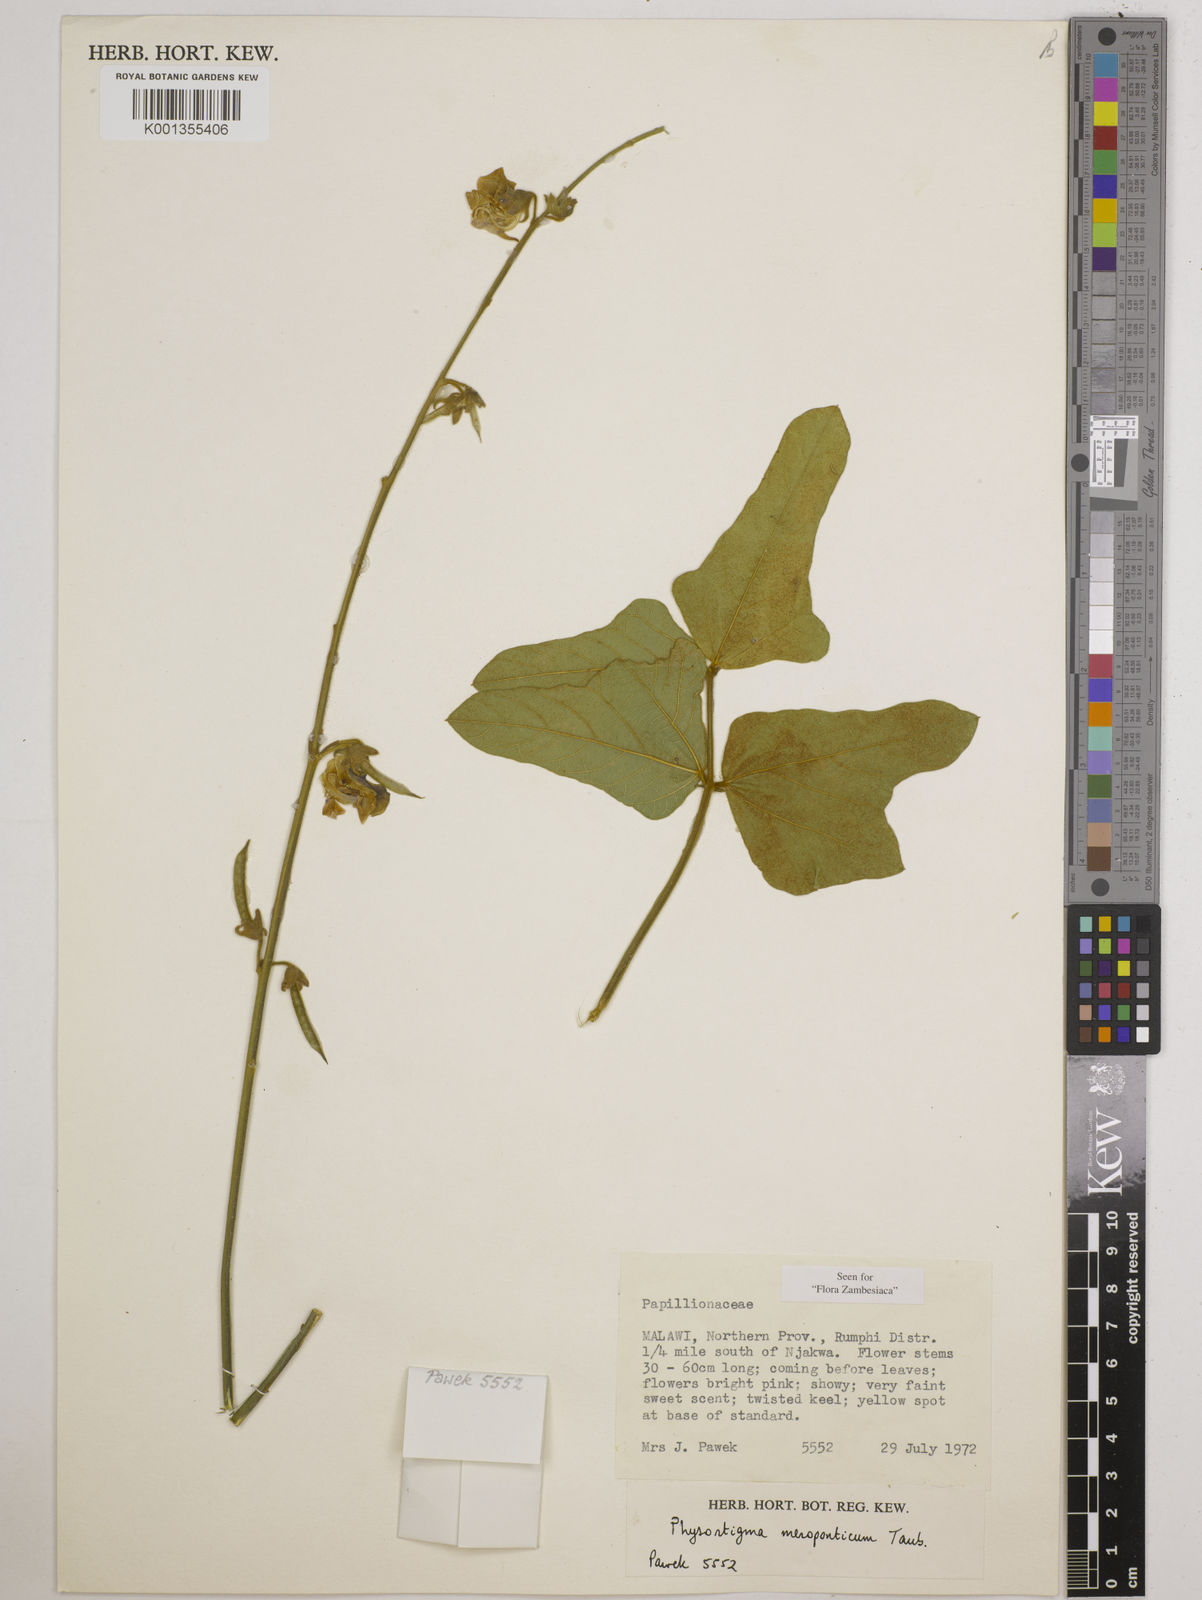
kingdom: Plantae
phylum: Tracheophyta
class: Magnoliopsida
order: Fabales
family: Fabaceae
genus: Physostigma
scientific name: Physostigma mesoponticum
